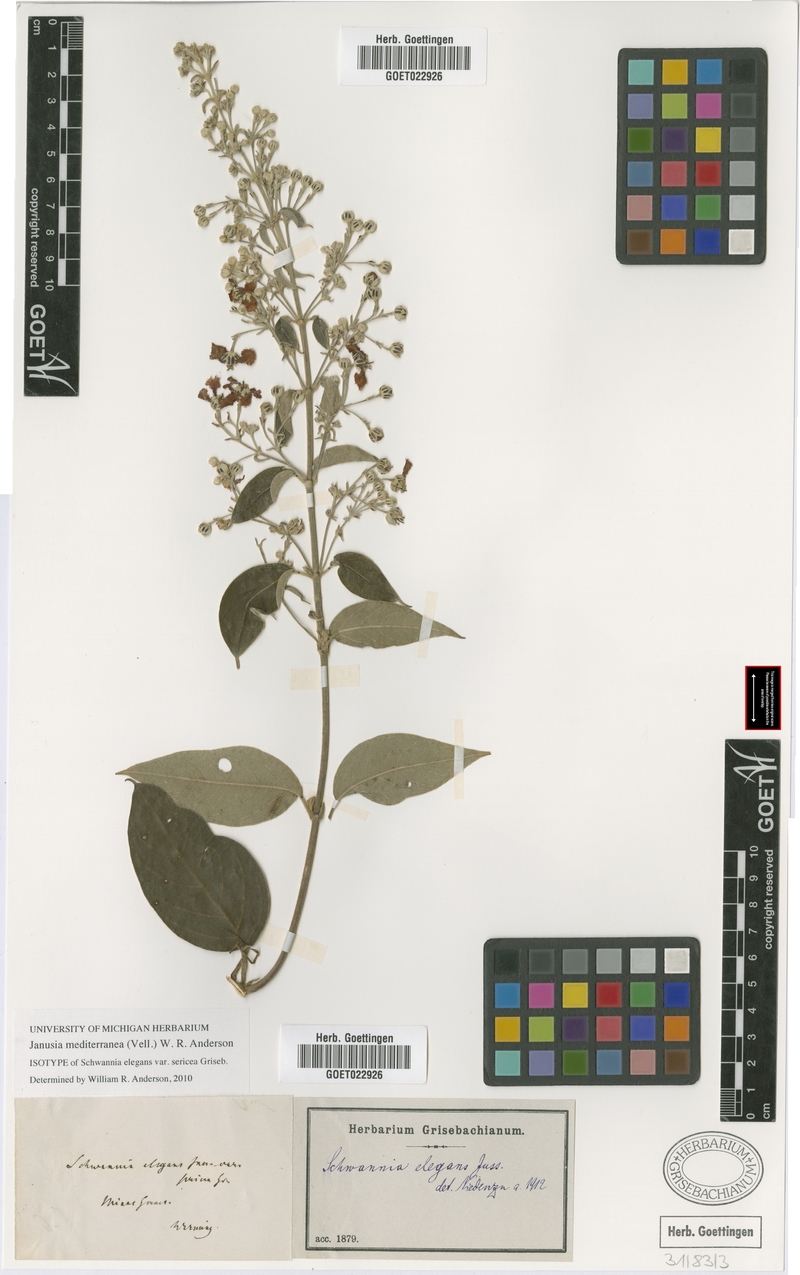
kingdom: Plantae
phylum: Tracheophyta
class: Magnoliopsida
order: Malpighiales
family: Malpighiaceae
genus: Janusia
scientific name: Janusia mediterranea
